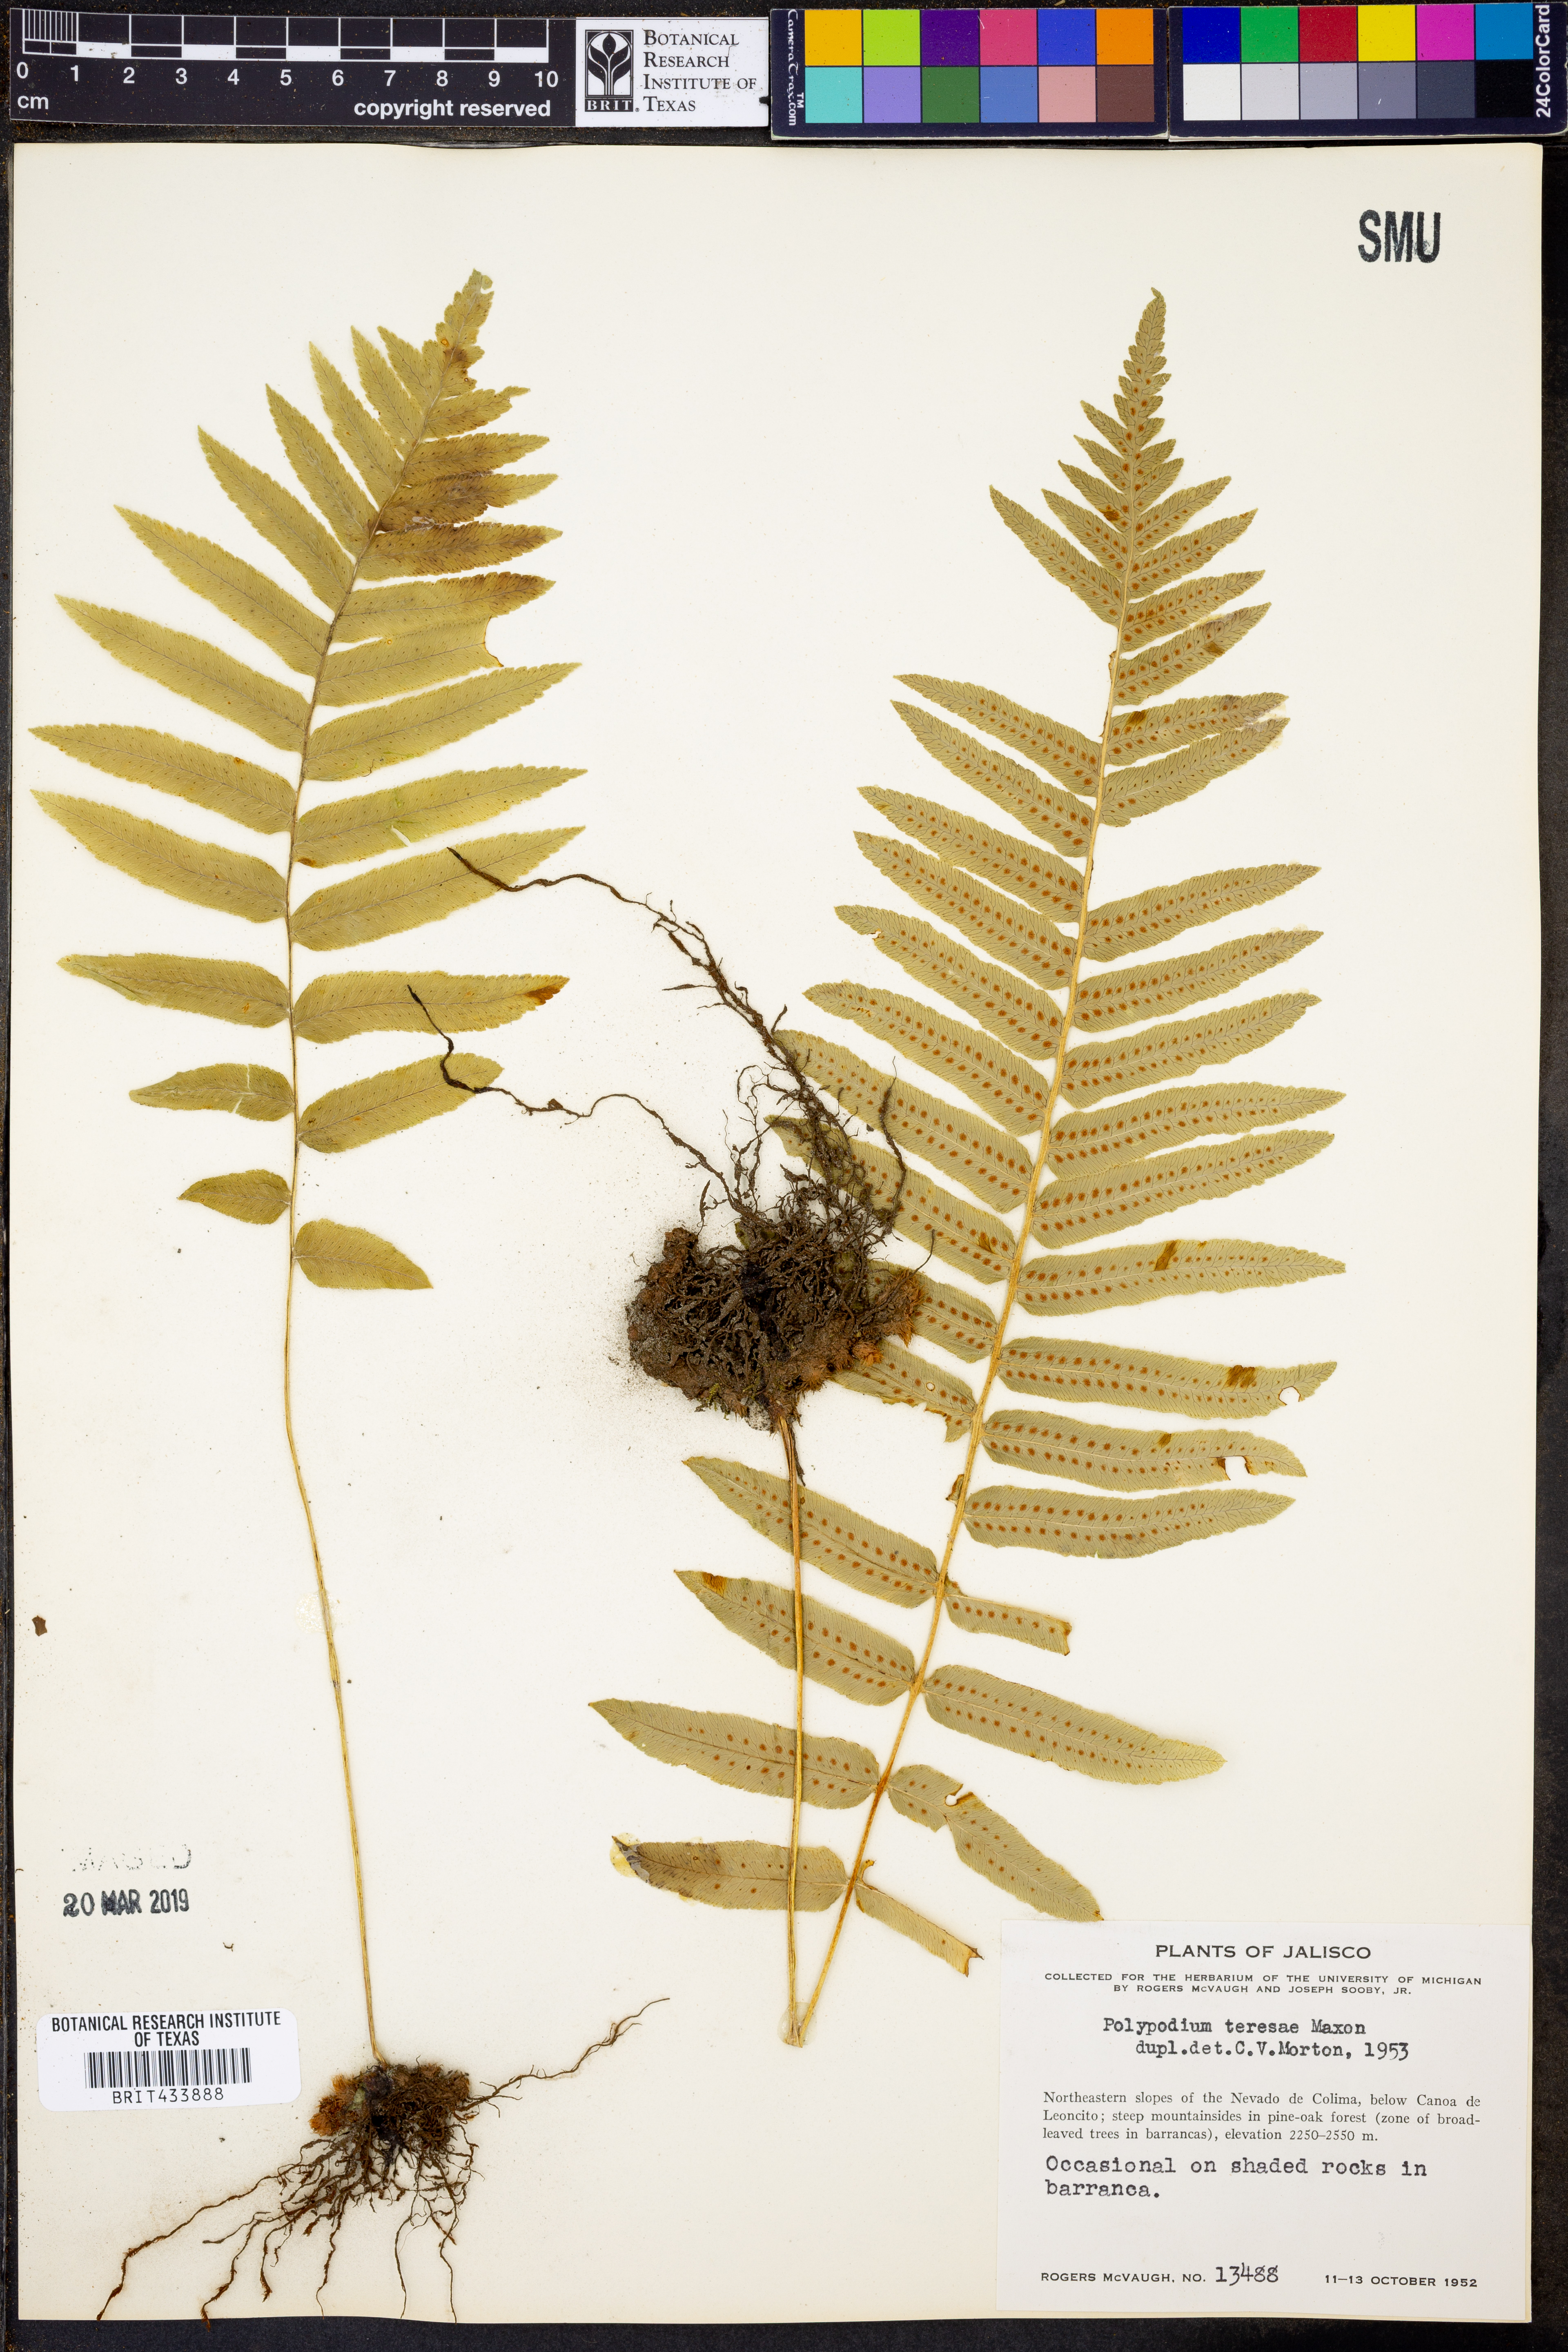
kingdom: Plantae
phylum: Tracheophyta
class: Polypodiopsida
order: Polypodiales
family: Polypodiaceae
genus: Polypodium
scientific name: Polypodium subpetiolatum
